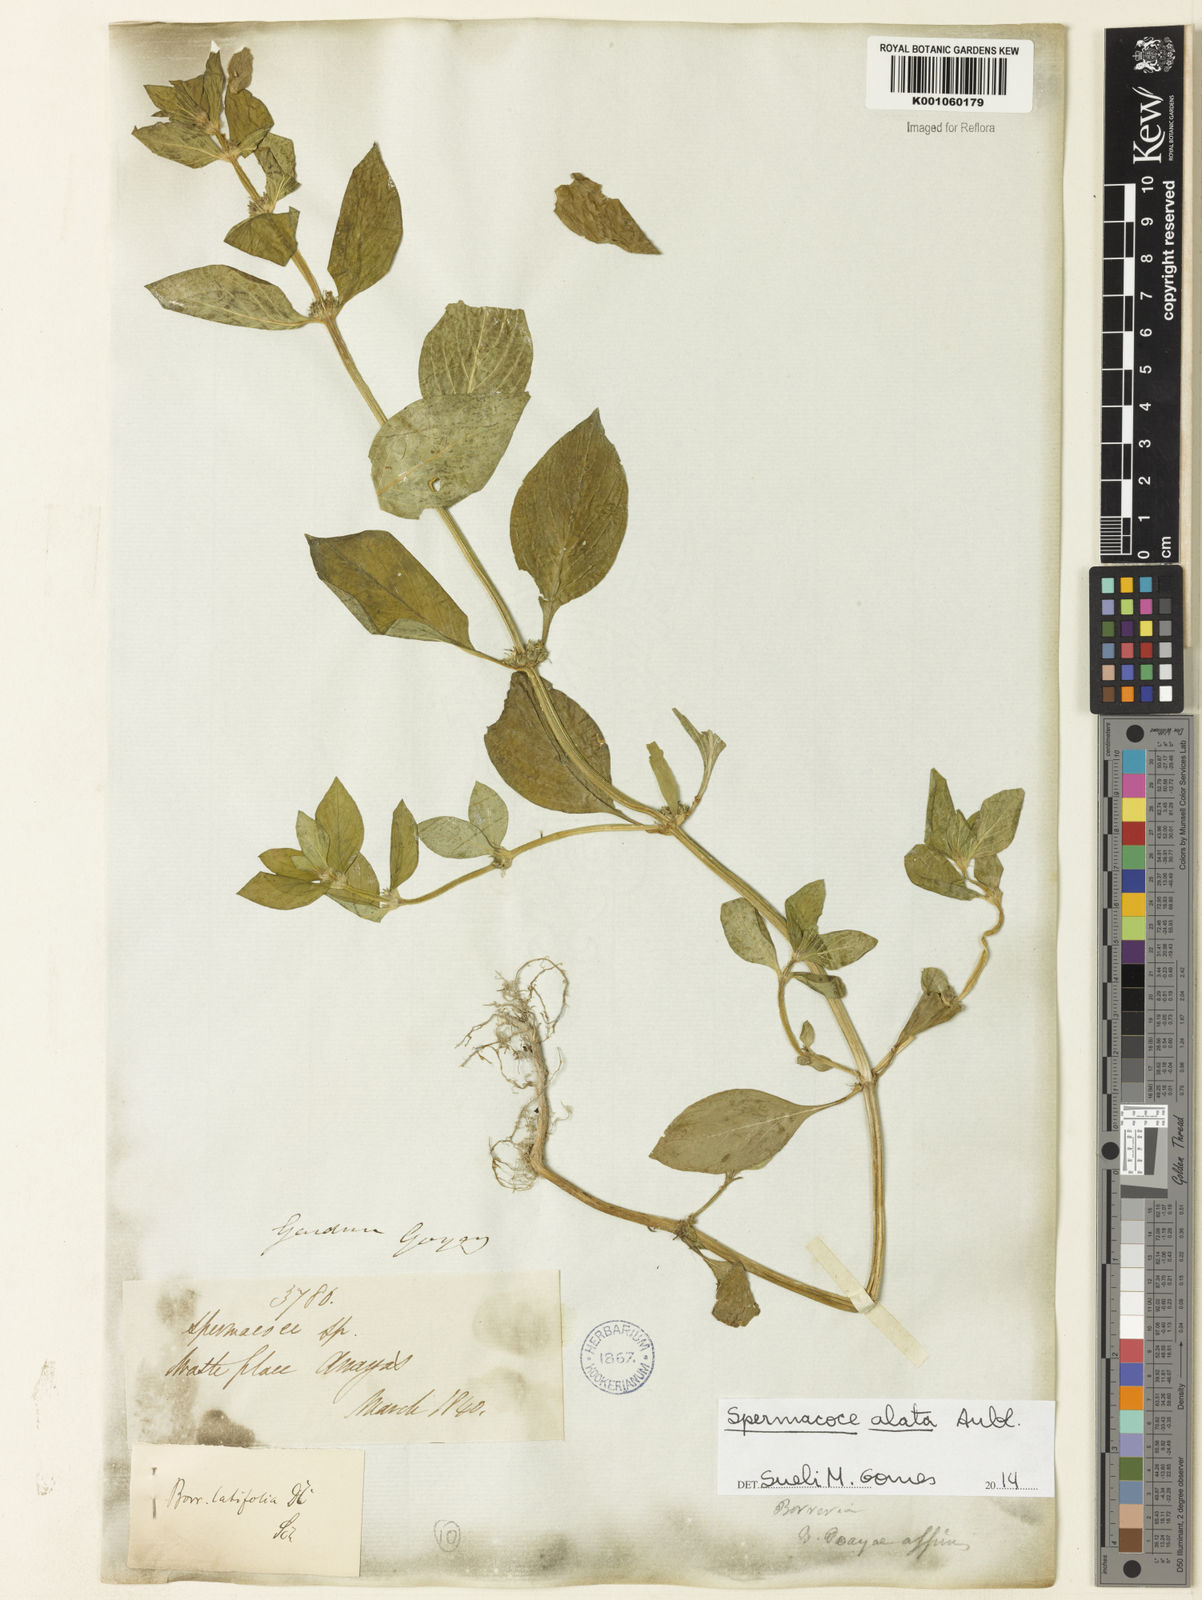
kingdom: Plantae
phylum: Tracheophyta
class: Magnoliopsida
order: Gentianales
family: Rubiaceae
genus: Spermacoce
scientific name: Spermacoce
